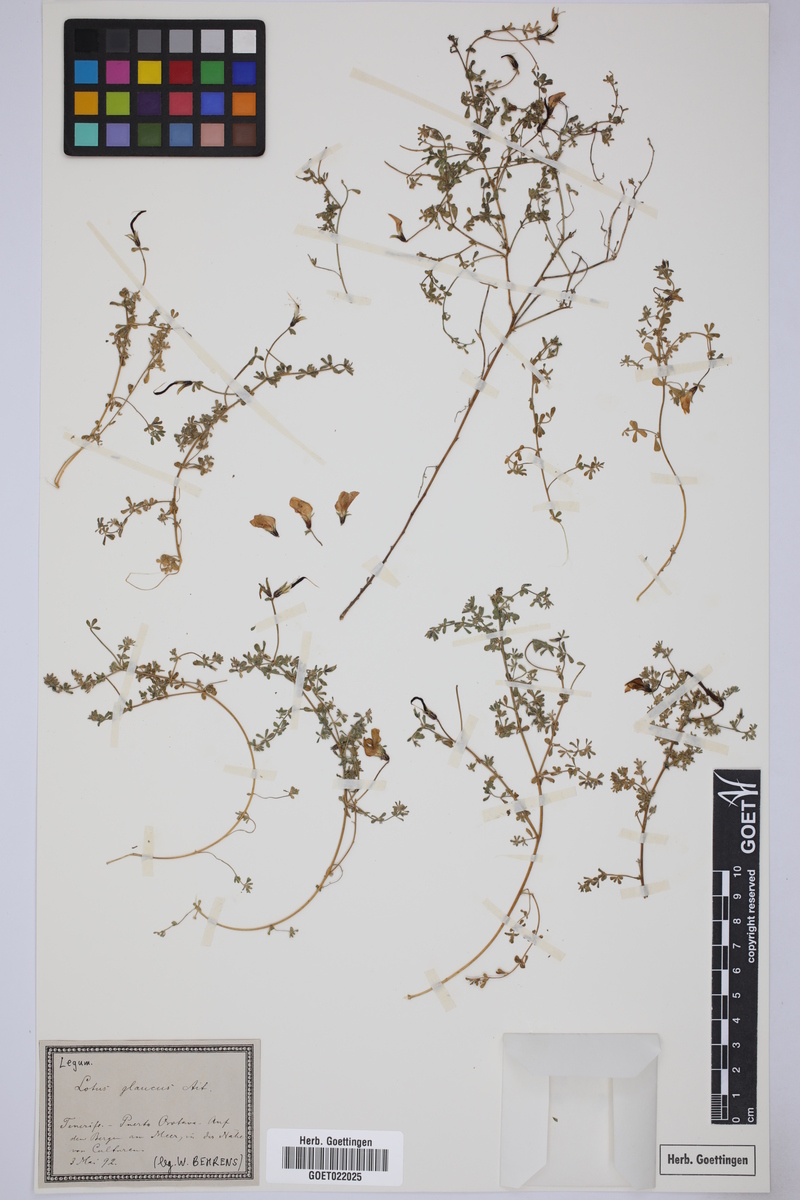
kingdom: Plantae
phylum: Tracheophyta
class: Magnoliopsida
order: Fabales
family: Fabaceae
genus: Lotus
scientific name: Lotus glaucus
